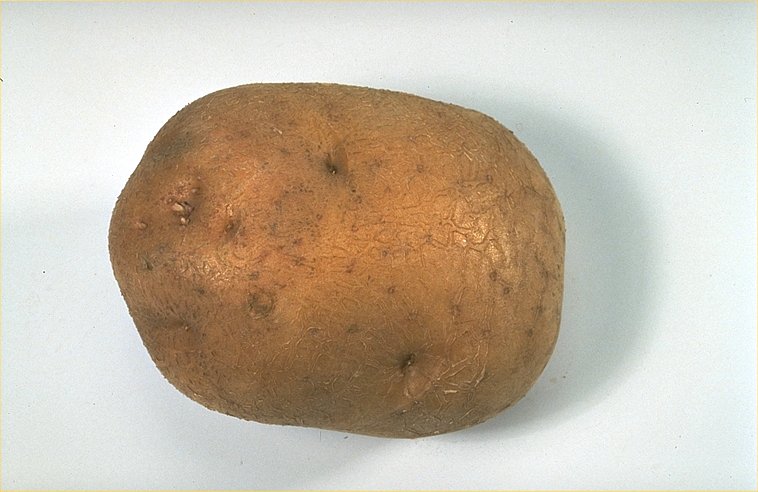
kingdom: Plantae
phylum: Tracheophyta
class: Magnoliopsida
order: Solanales
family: Solanaceae
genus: Solanum
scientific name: Solanum tuberosum
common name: Potato
